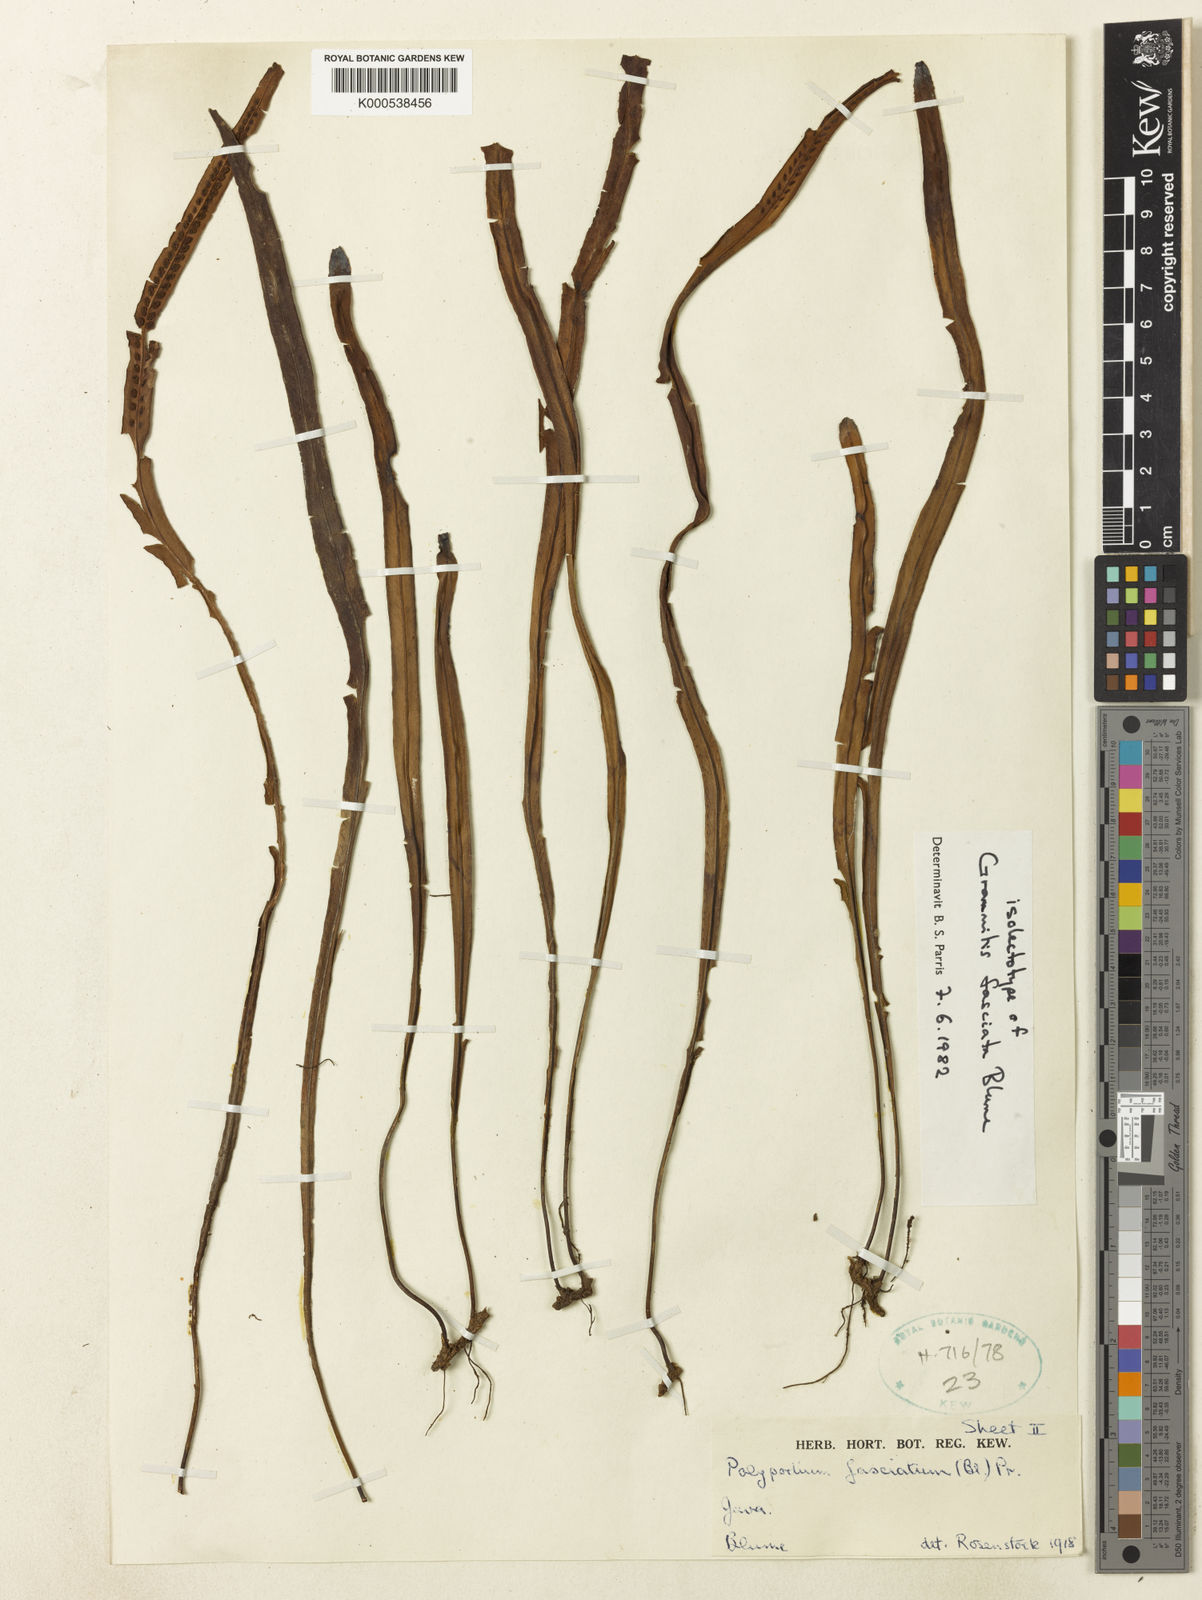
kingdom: Plantae
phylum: Tracheophyta
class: Polypodiopsida
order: Polypodiales
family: Polypodiaceae
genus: Oreogrammitis
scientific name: Oreogrammitis fasciata
